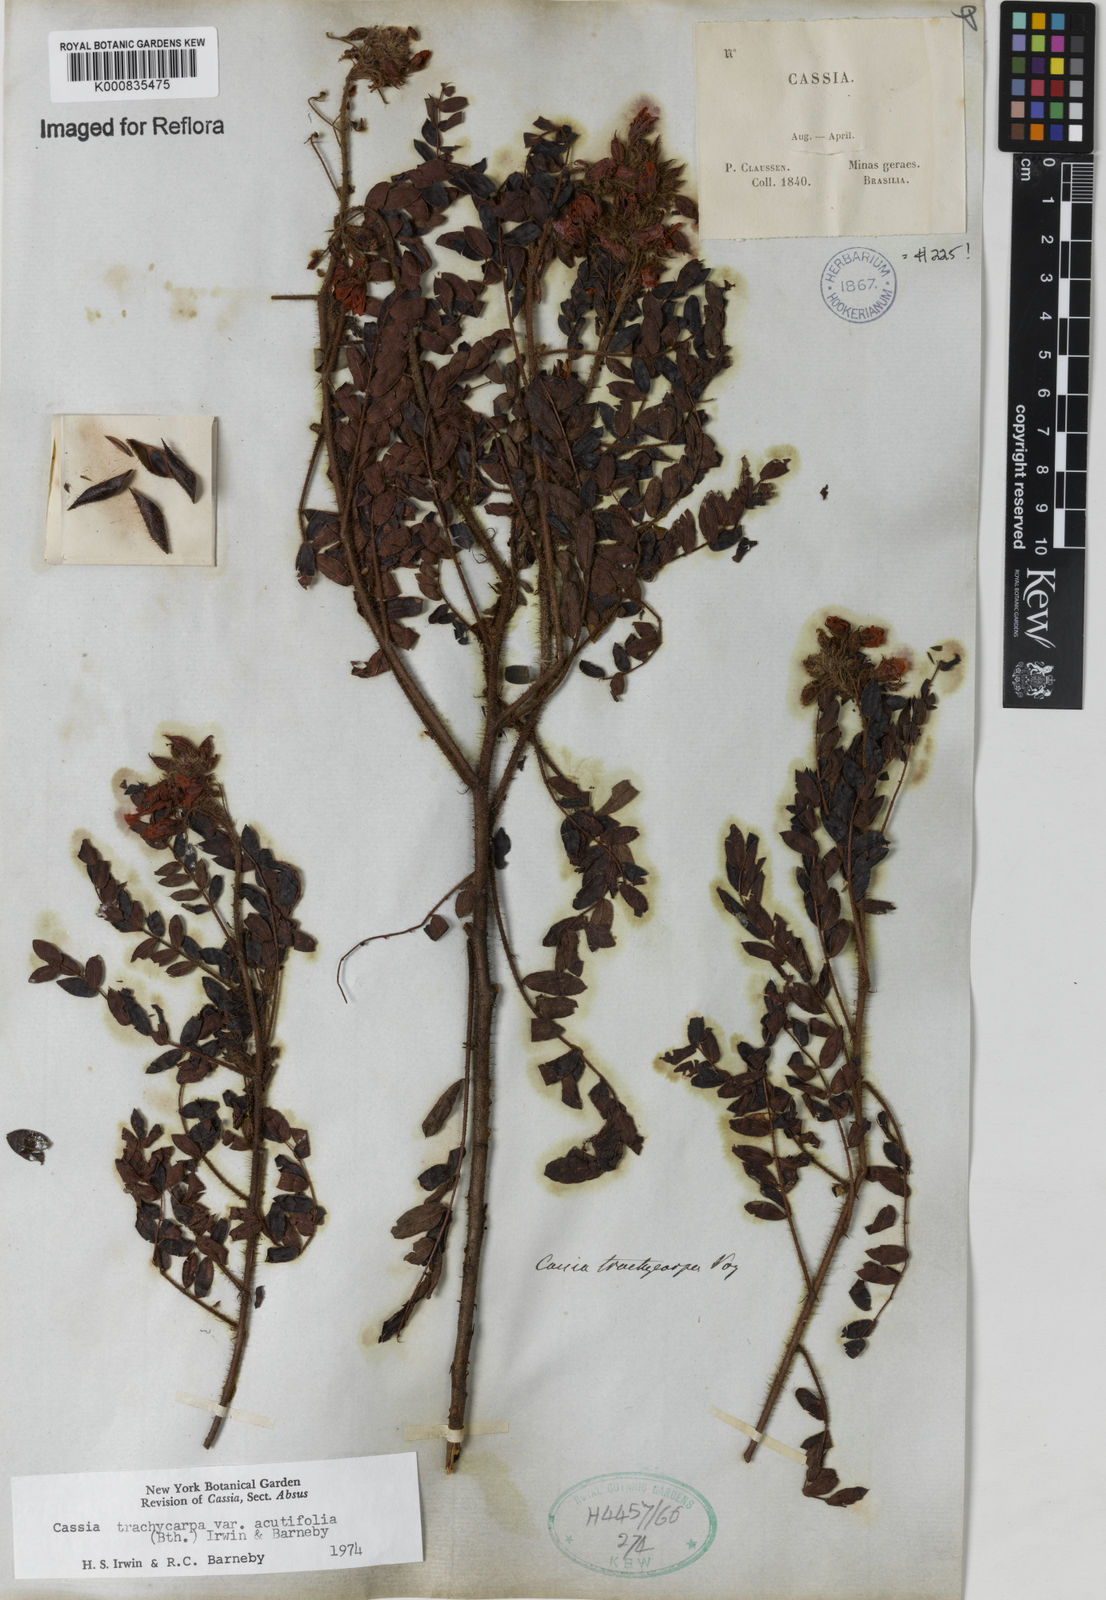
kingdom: Plantae
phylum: Tracheophyta
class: Magnoliopsida
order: Fabales
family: Fabaceae
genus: Chamaecrista
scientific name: Chamaecrista trachycarpa
